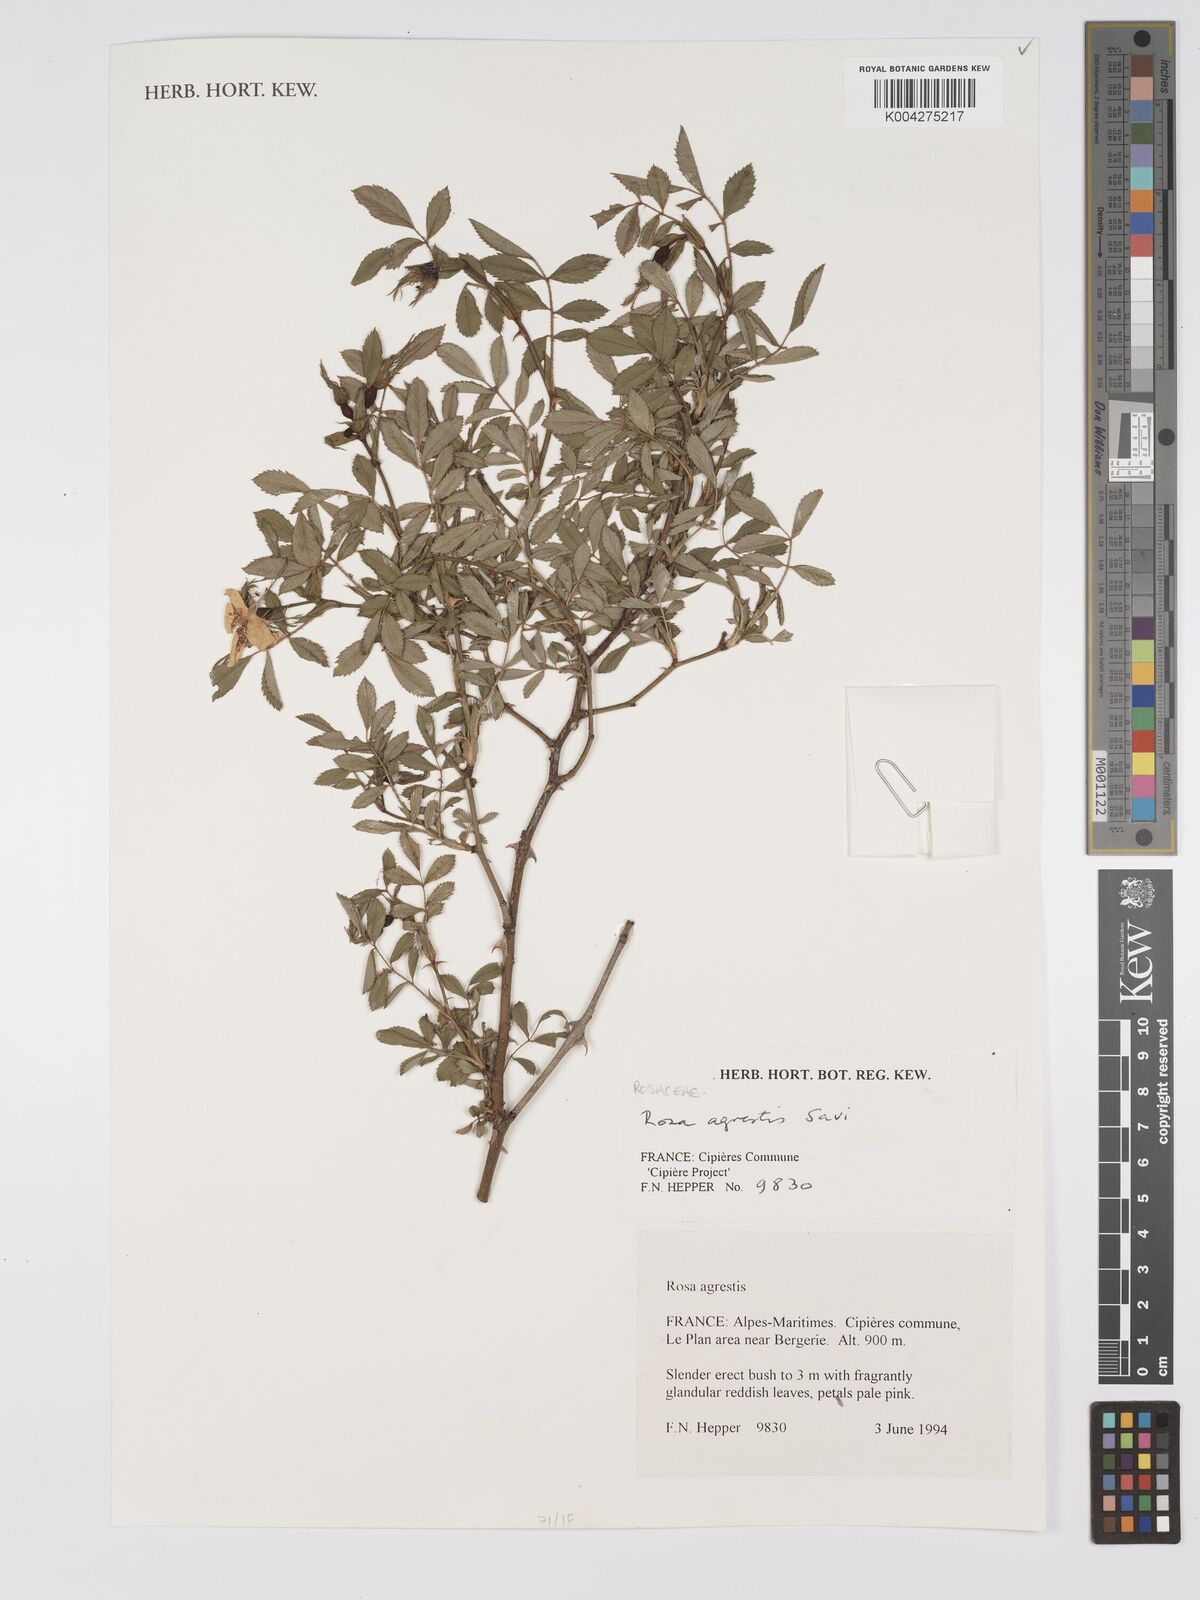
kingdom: Plantae
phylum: Tracheophyta
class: Magnoliopsida
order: Rosales
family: Rosaceae
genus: Rosa
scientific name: Rosa
